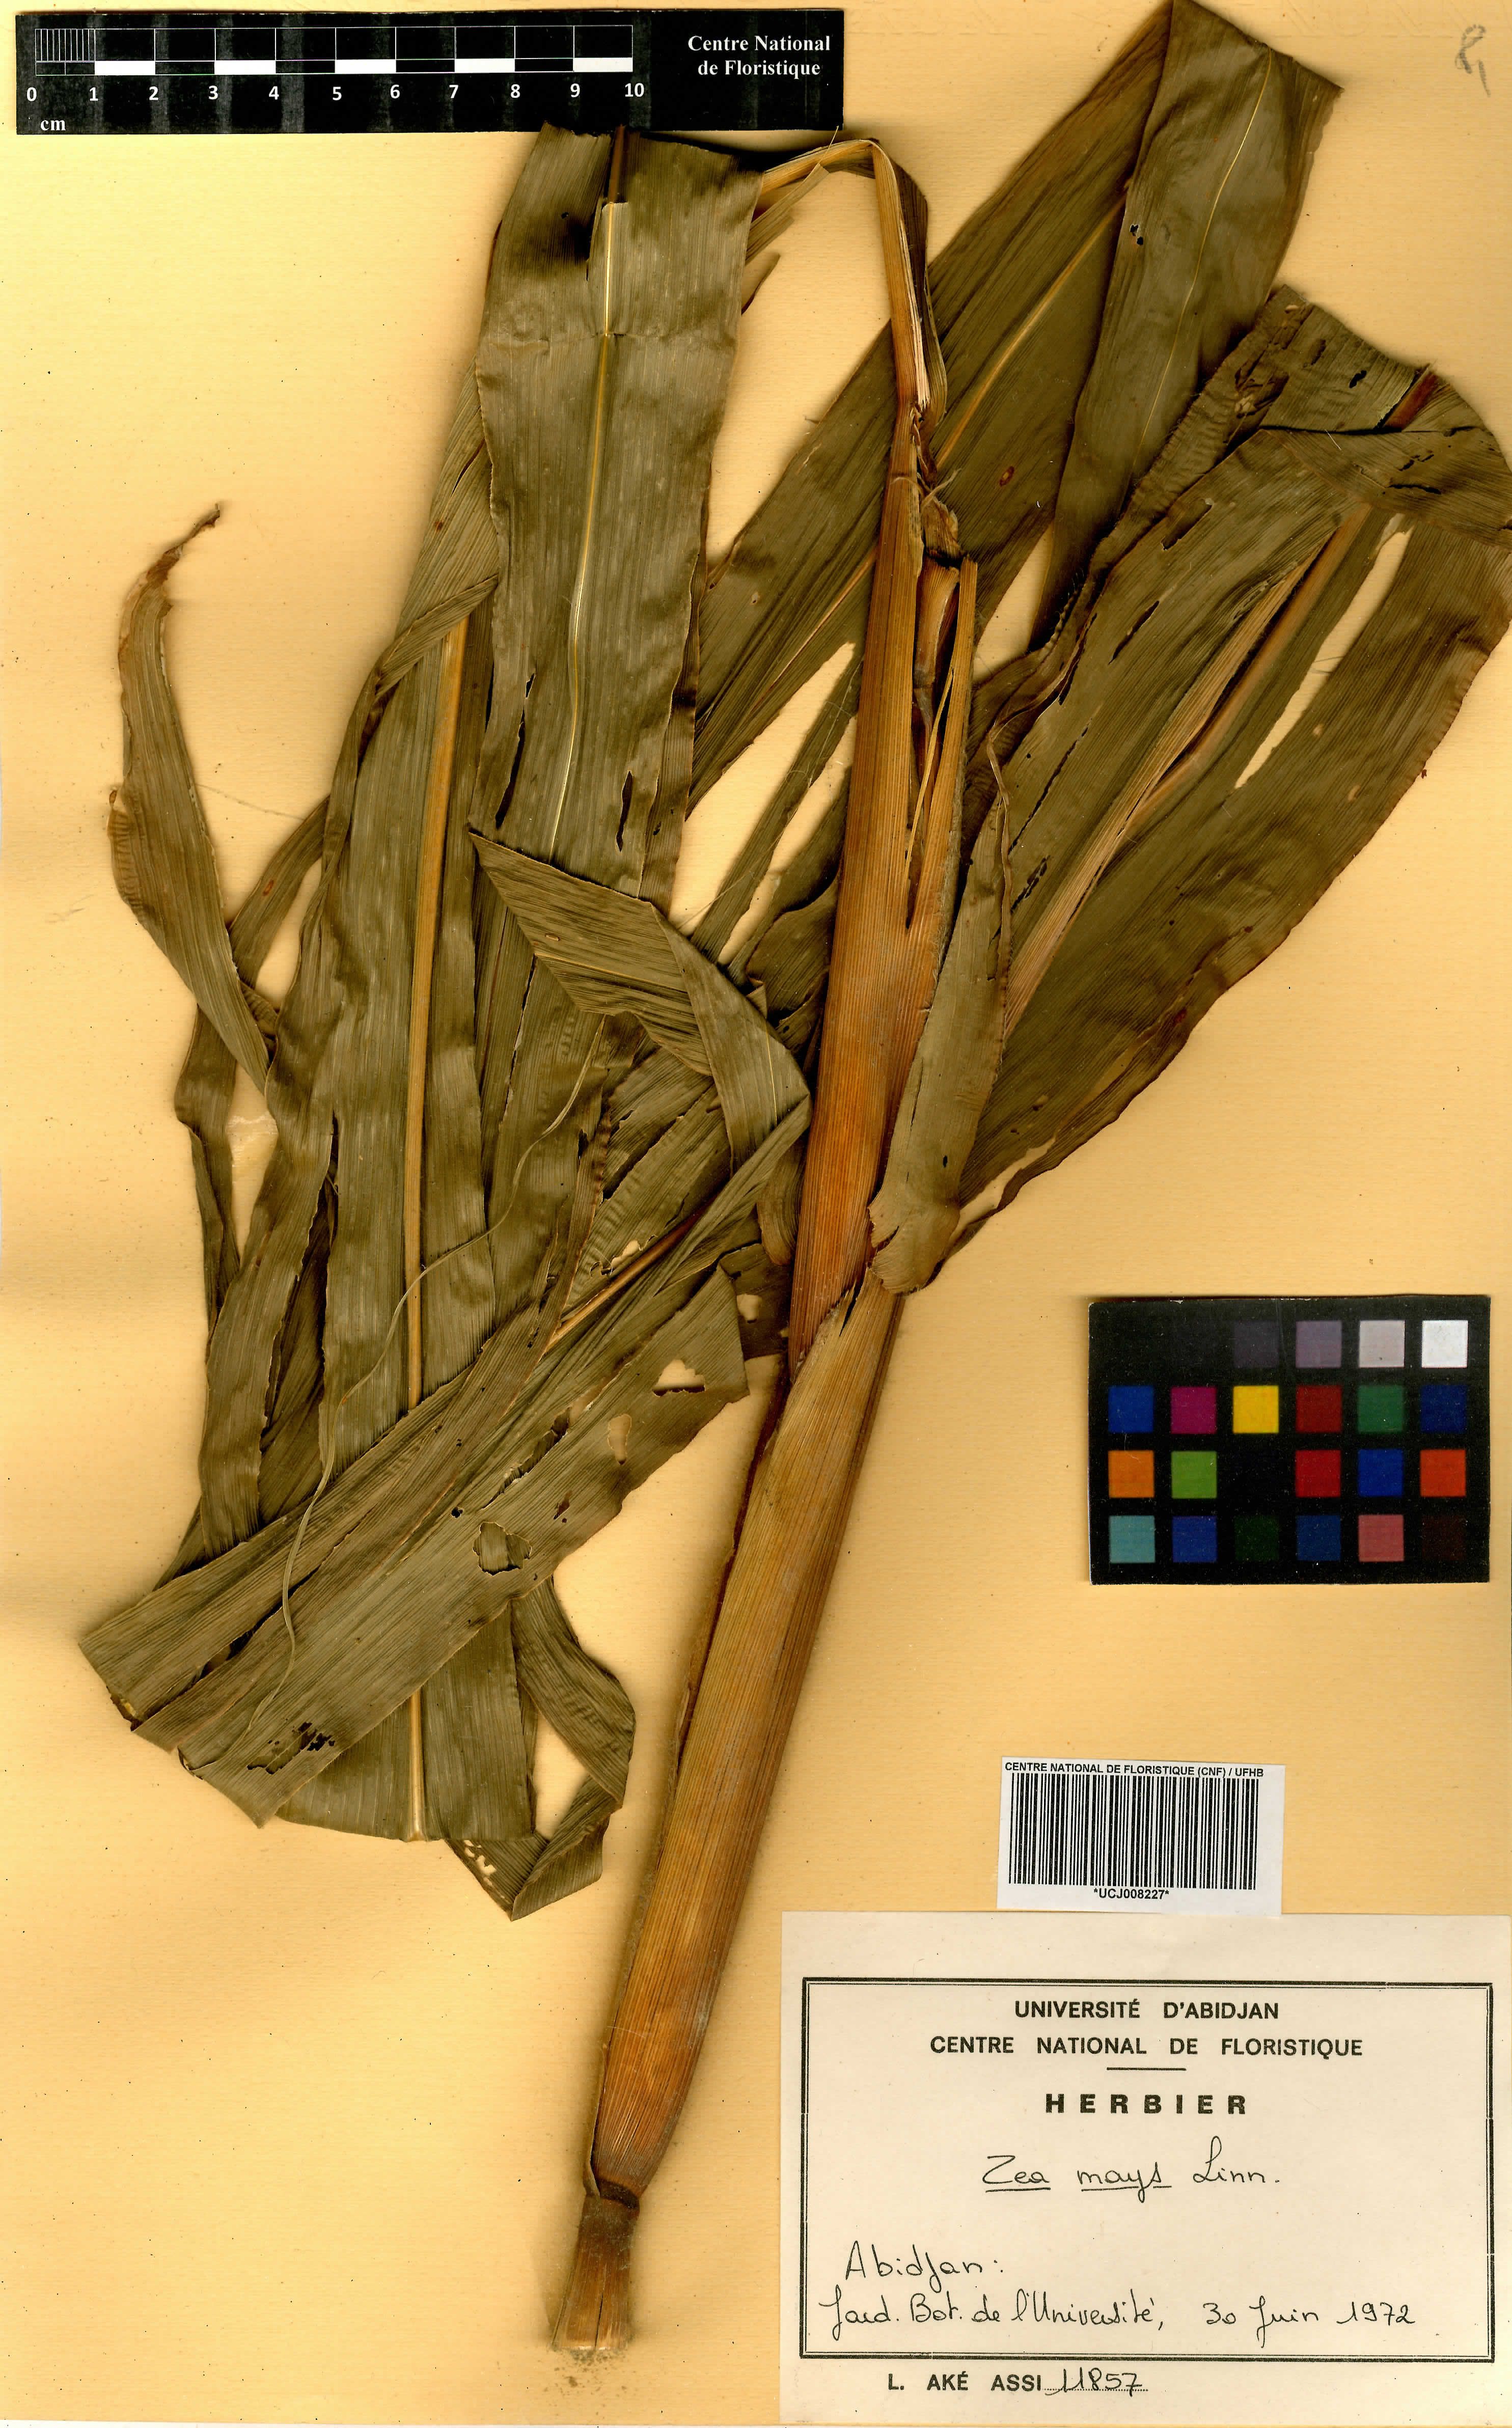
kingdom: Plantae
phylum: Tracheophyta
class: Liliopsida
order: Poales
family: Poaceae
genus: Zea
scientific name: Zea mays
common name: Maize
